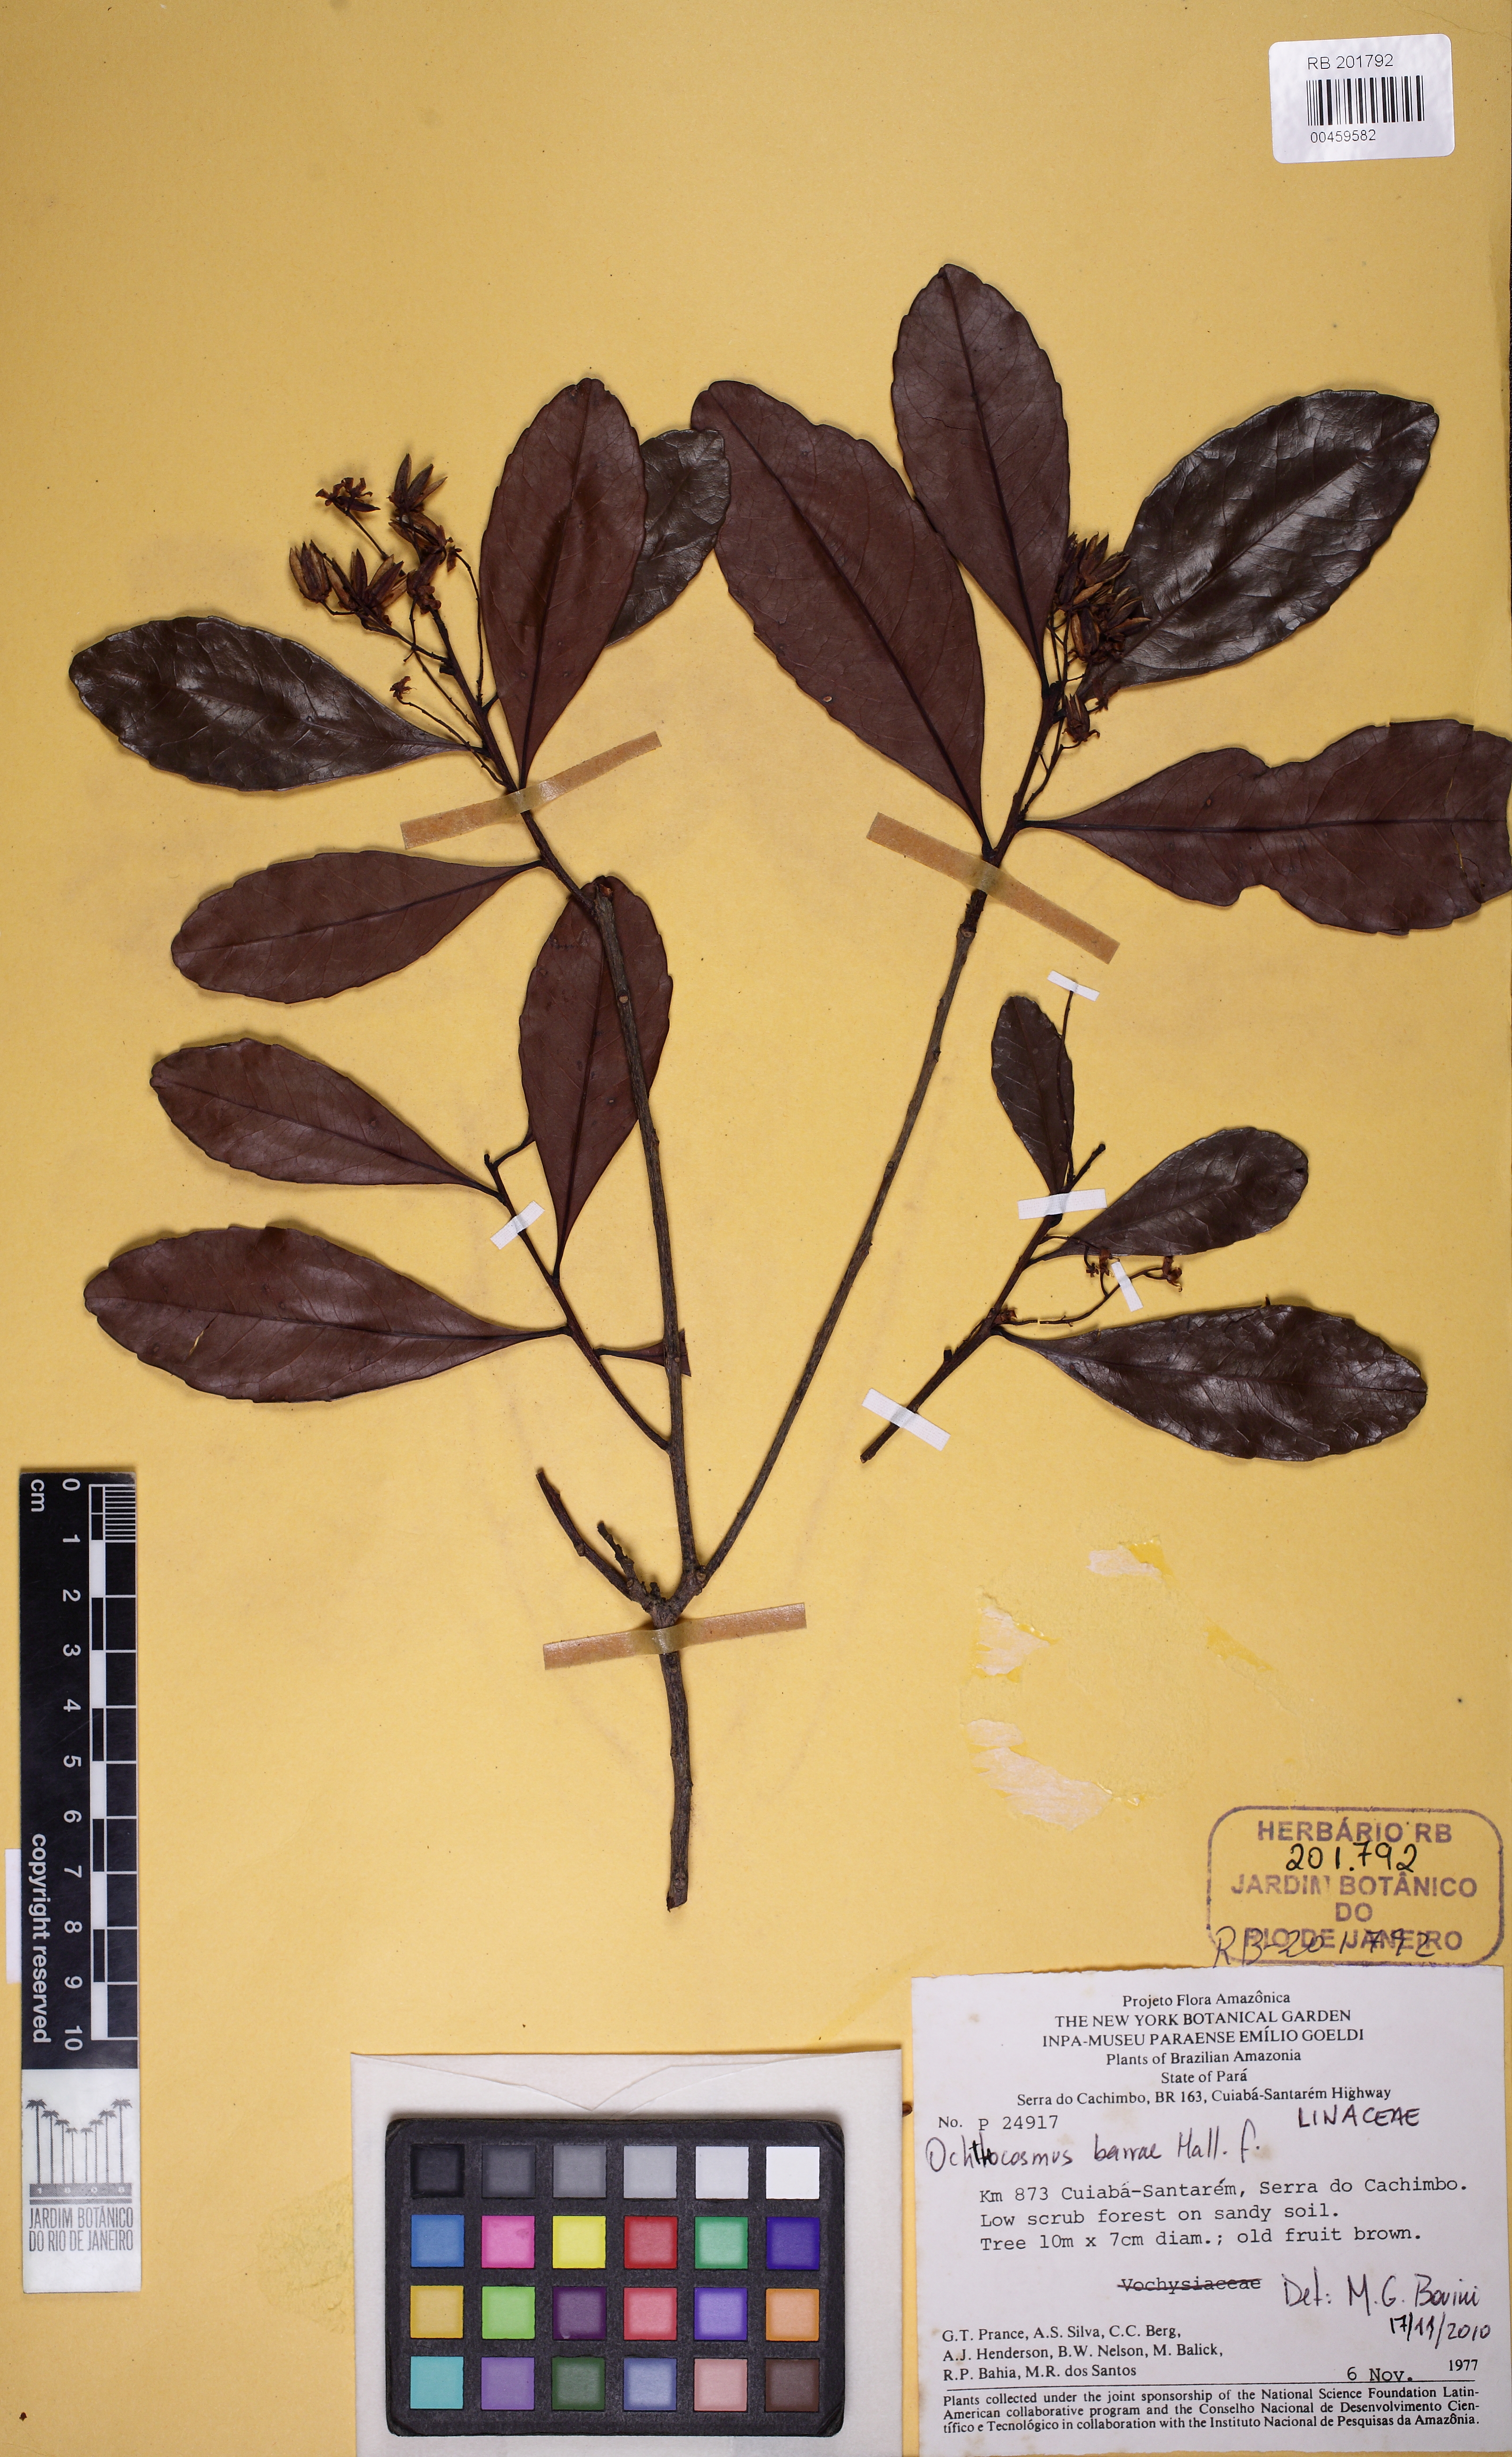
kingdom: Plantae
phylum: Tracheophyta
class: Magnoliopsida
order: Malpighiales
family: Ixonanthaceae
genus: Ochthocosmus
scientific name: Ochthocosmus barrae
